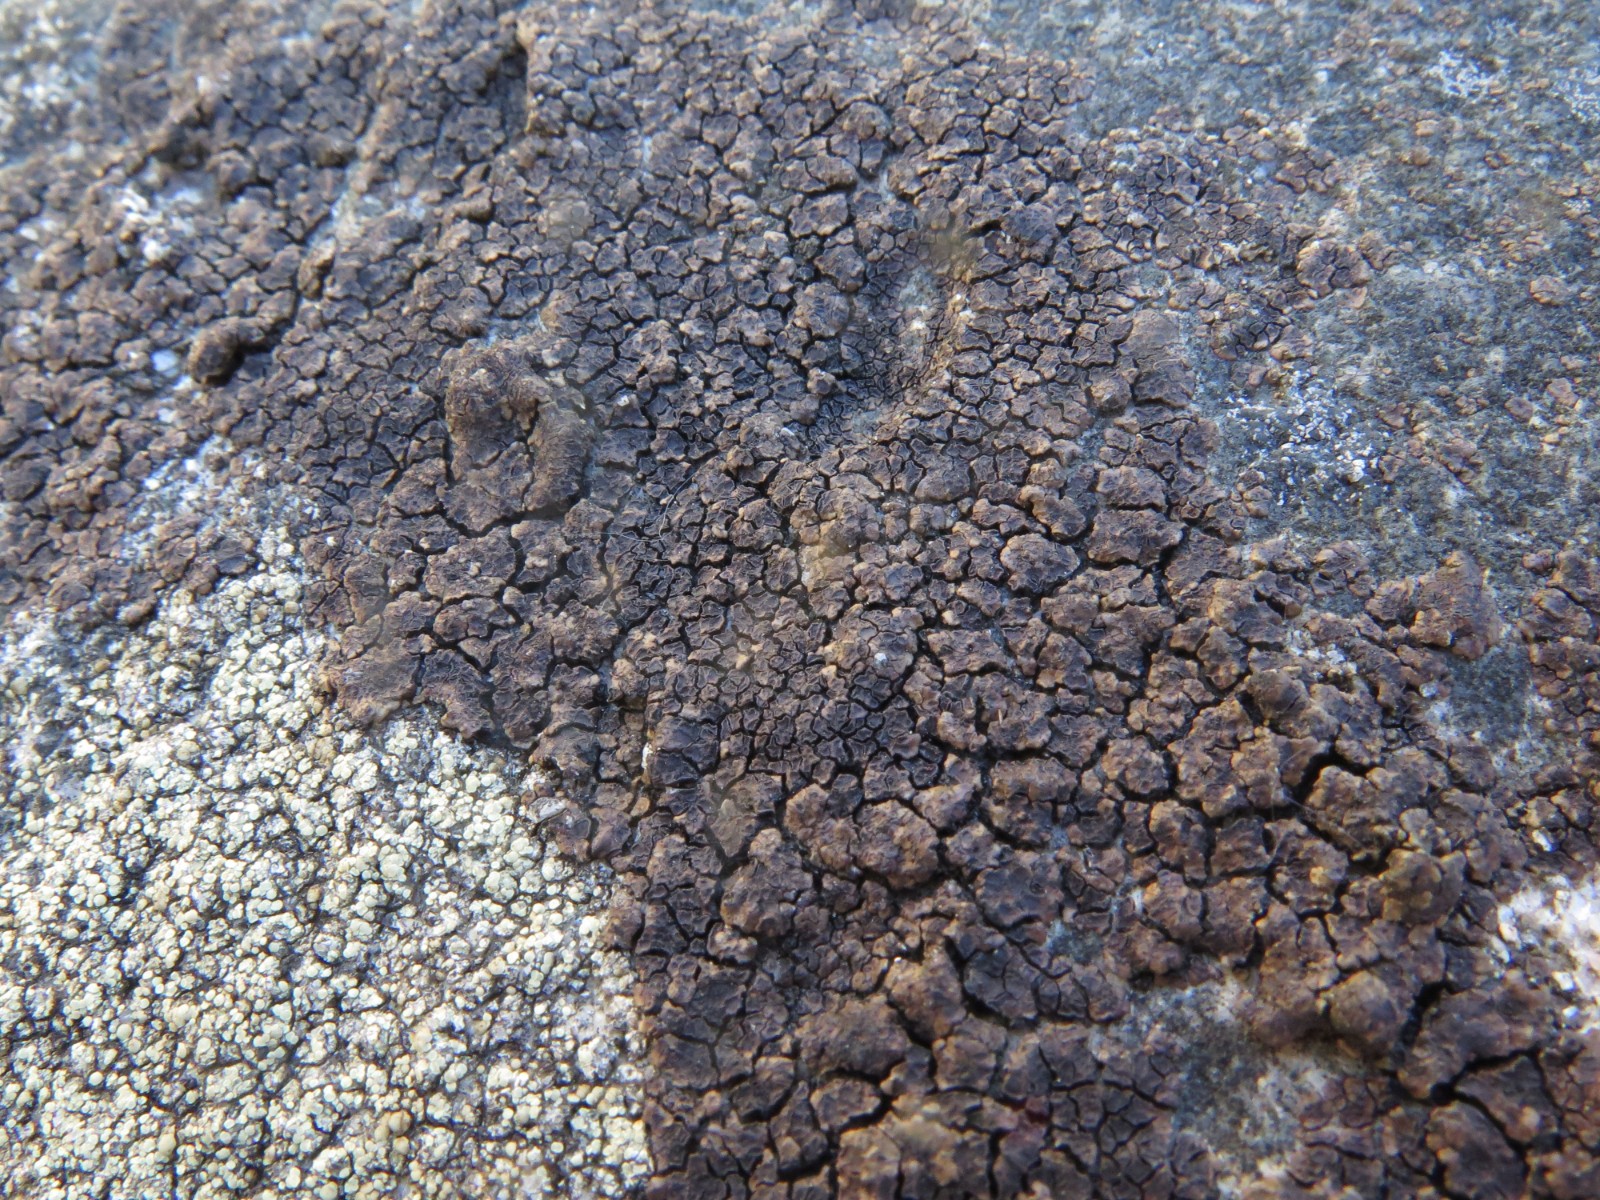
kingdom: Fungi
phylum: Ascomycota
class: Lecanoromycetes
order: Acarosporales
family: Acarosporaceae
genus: Acarospora
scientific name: Acarospora fuscata
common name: brun småsporelav
